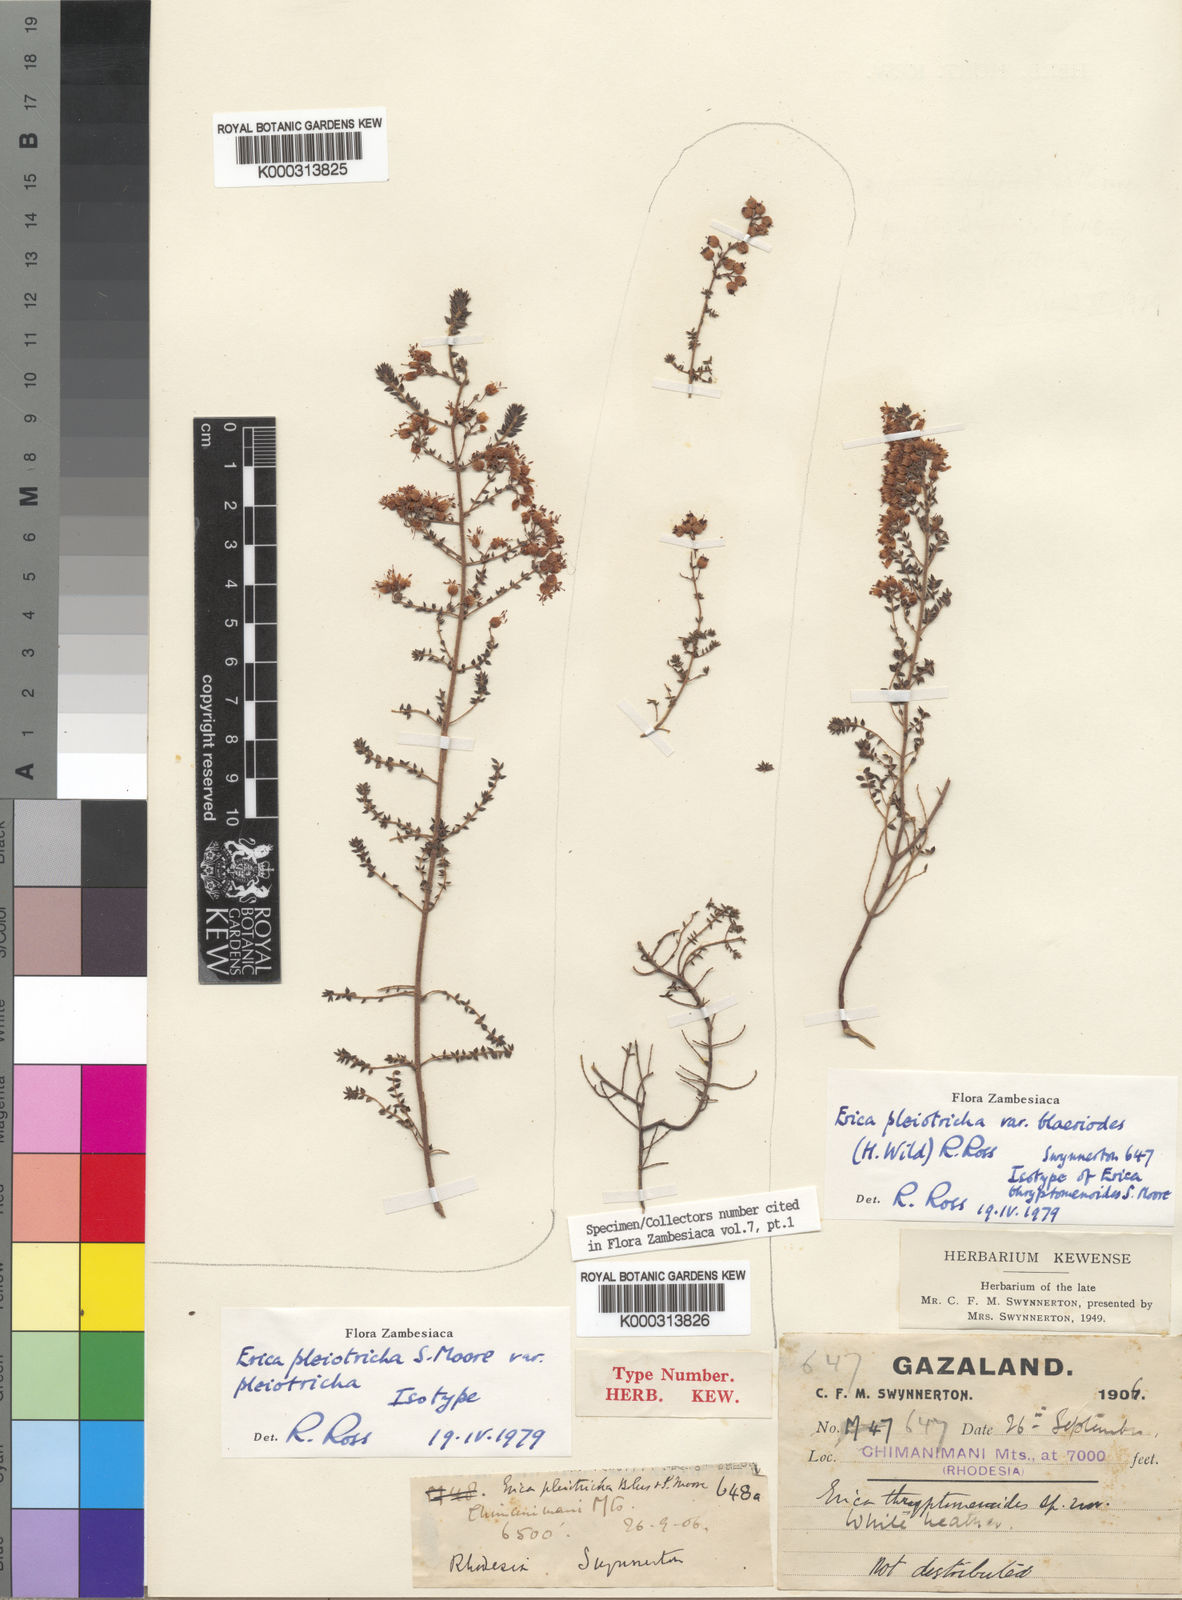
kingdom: Plantae
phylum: Tracheophyta
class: Magnoliopsida
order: Ericales
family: Ericaceae
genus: Erica
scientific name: Erica pleiotricha
